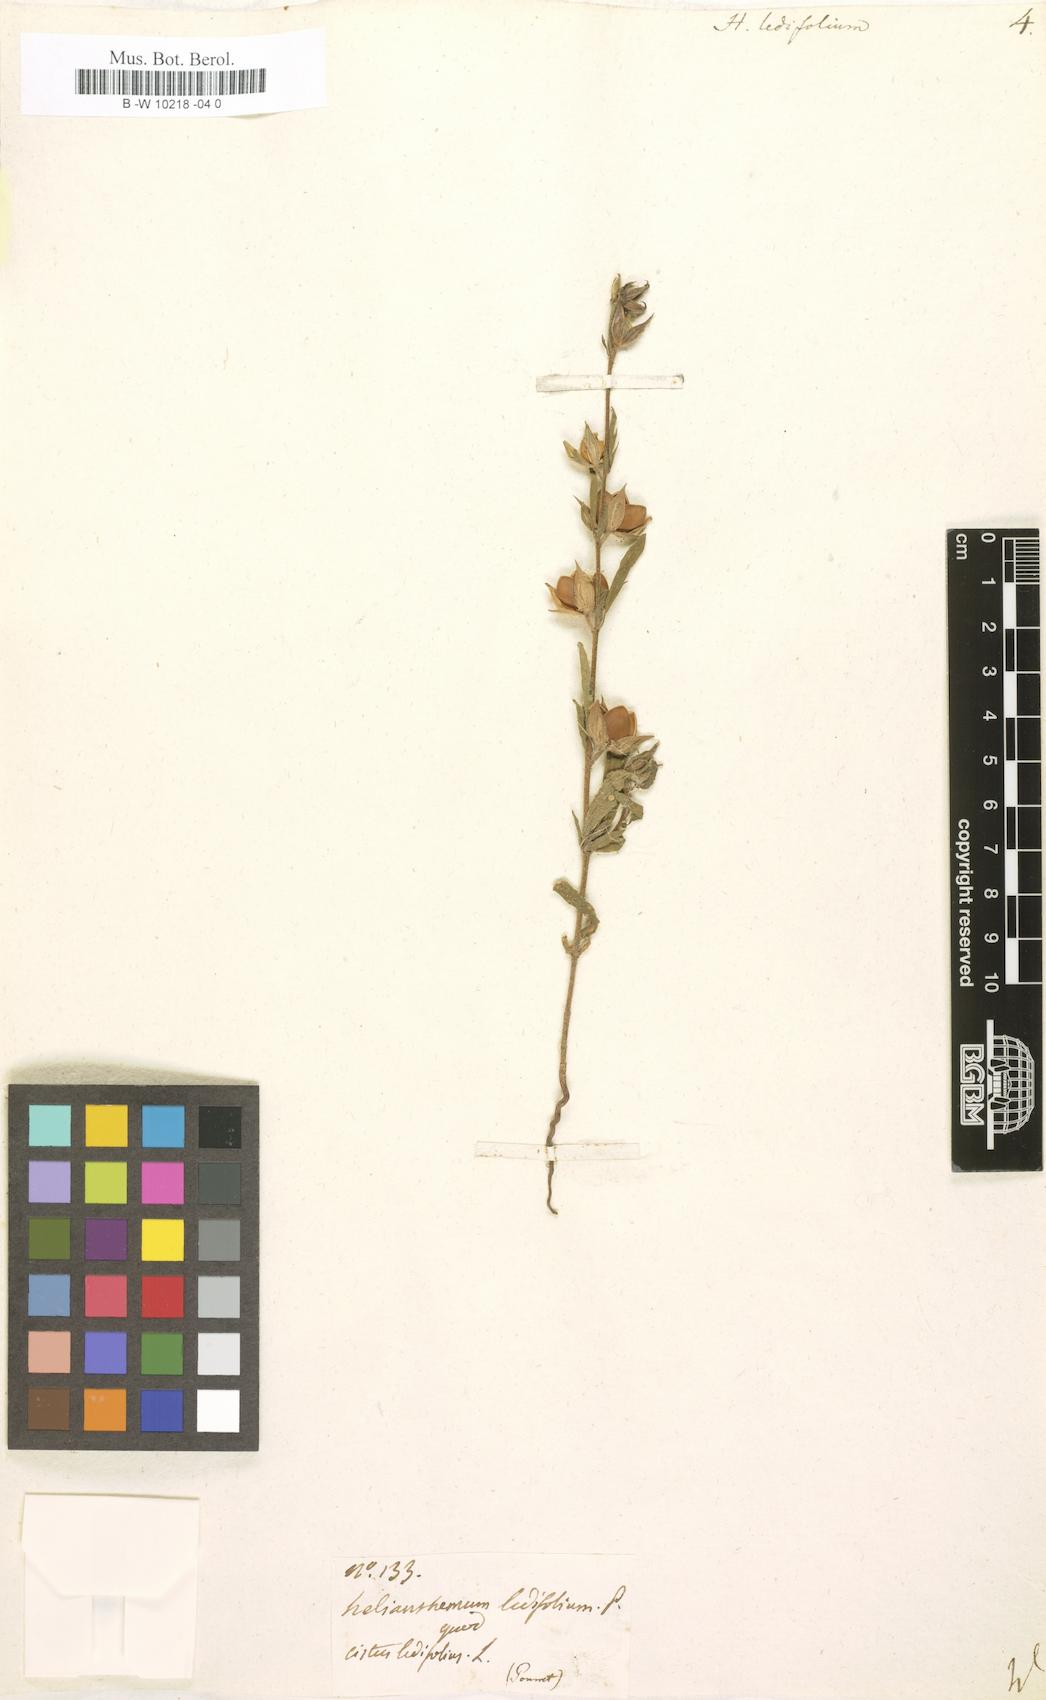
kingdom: Plantae
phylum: Tracheophyta
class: Magnoliopsida
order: Malvales
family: Cistaceae
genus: Helianthemum
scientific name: Helianthemum ledifolium
